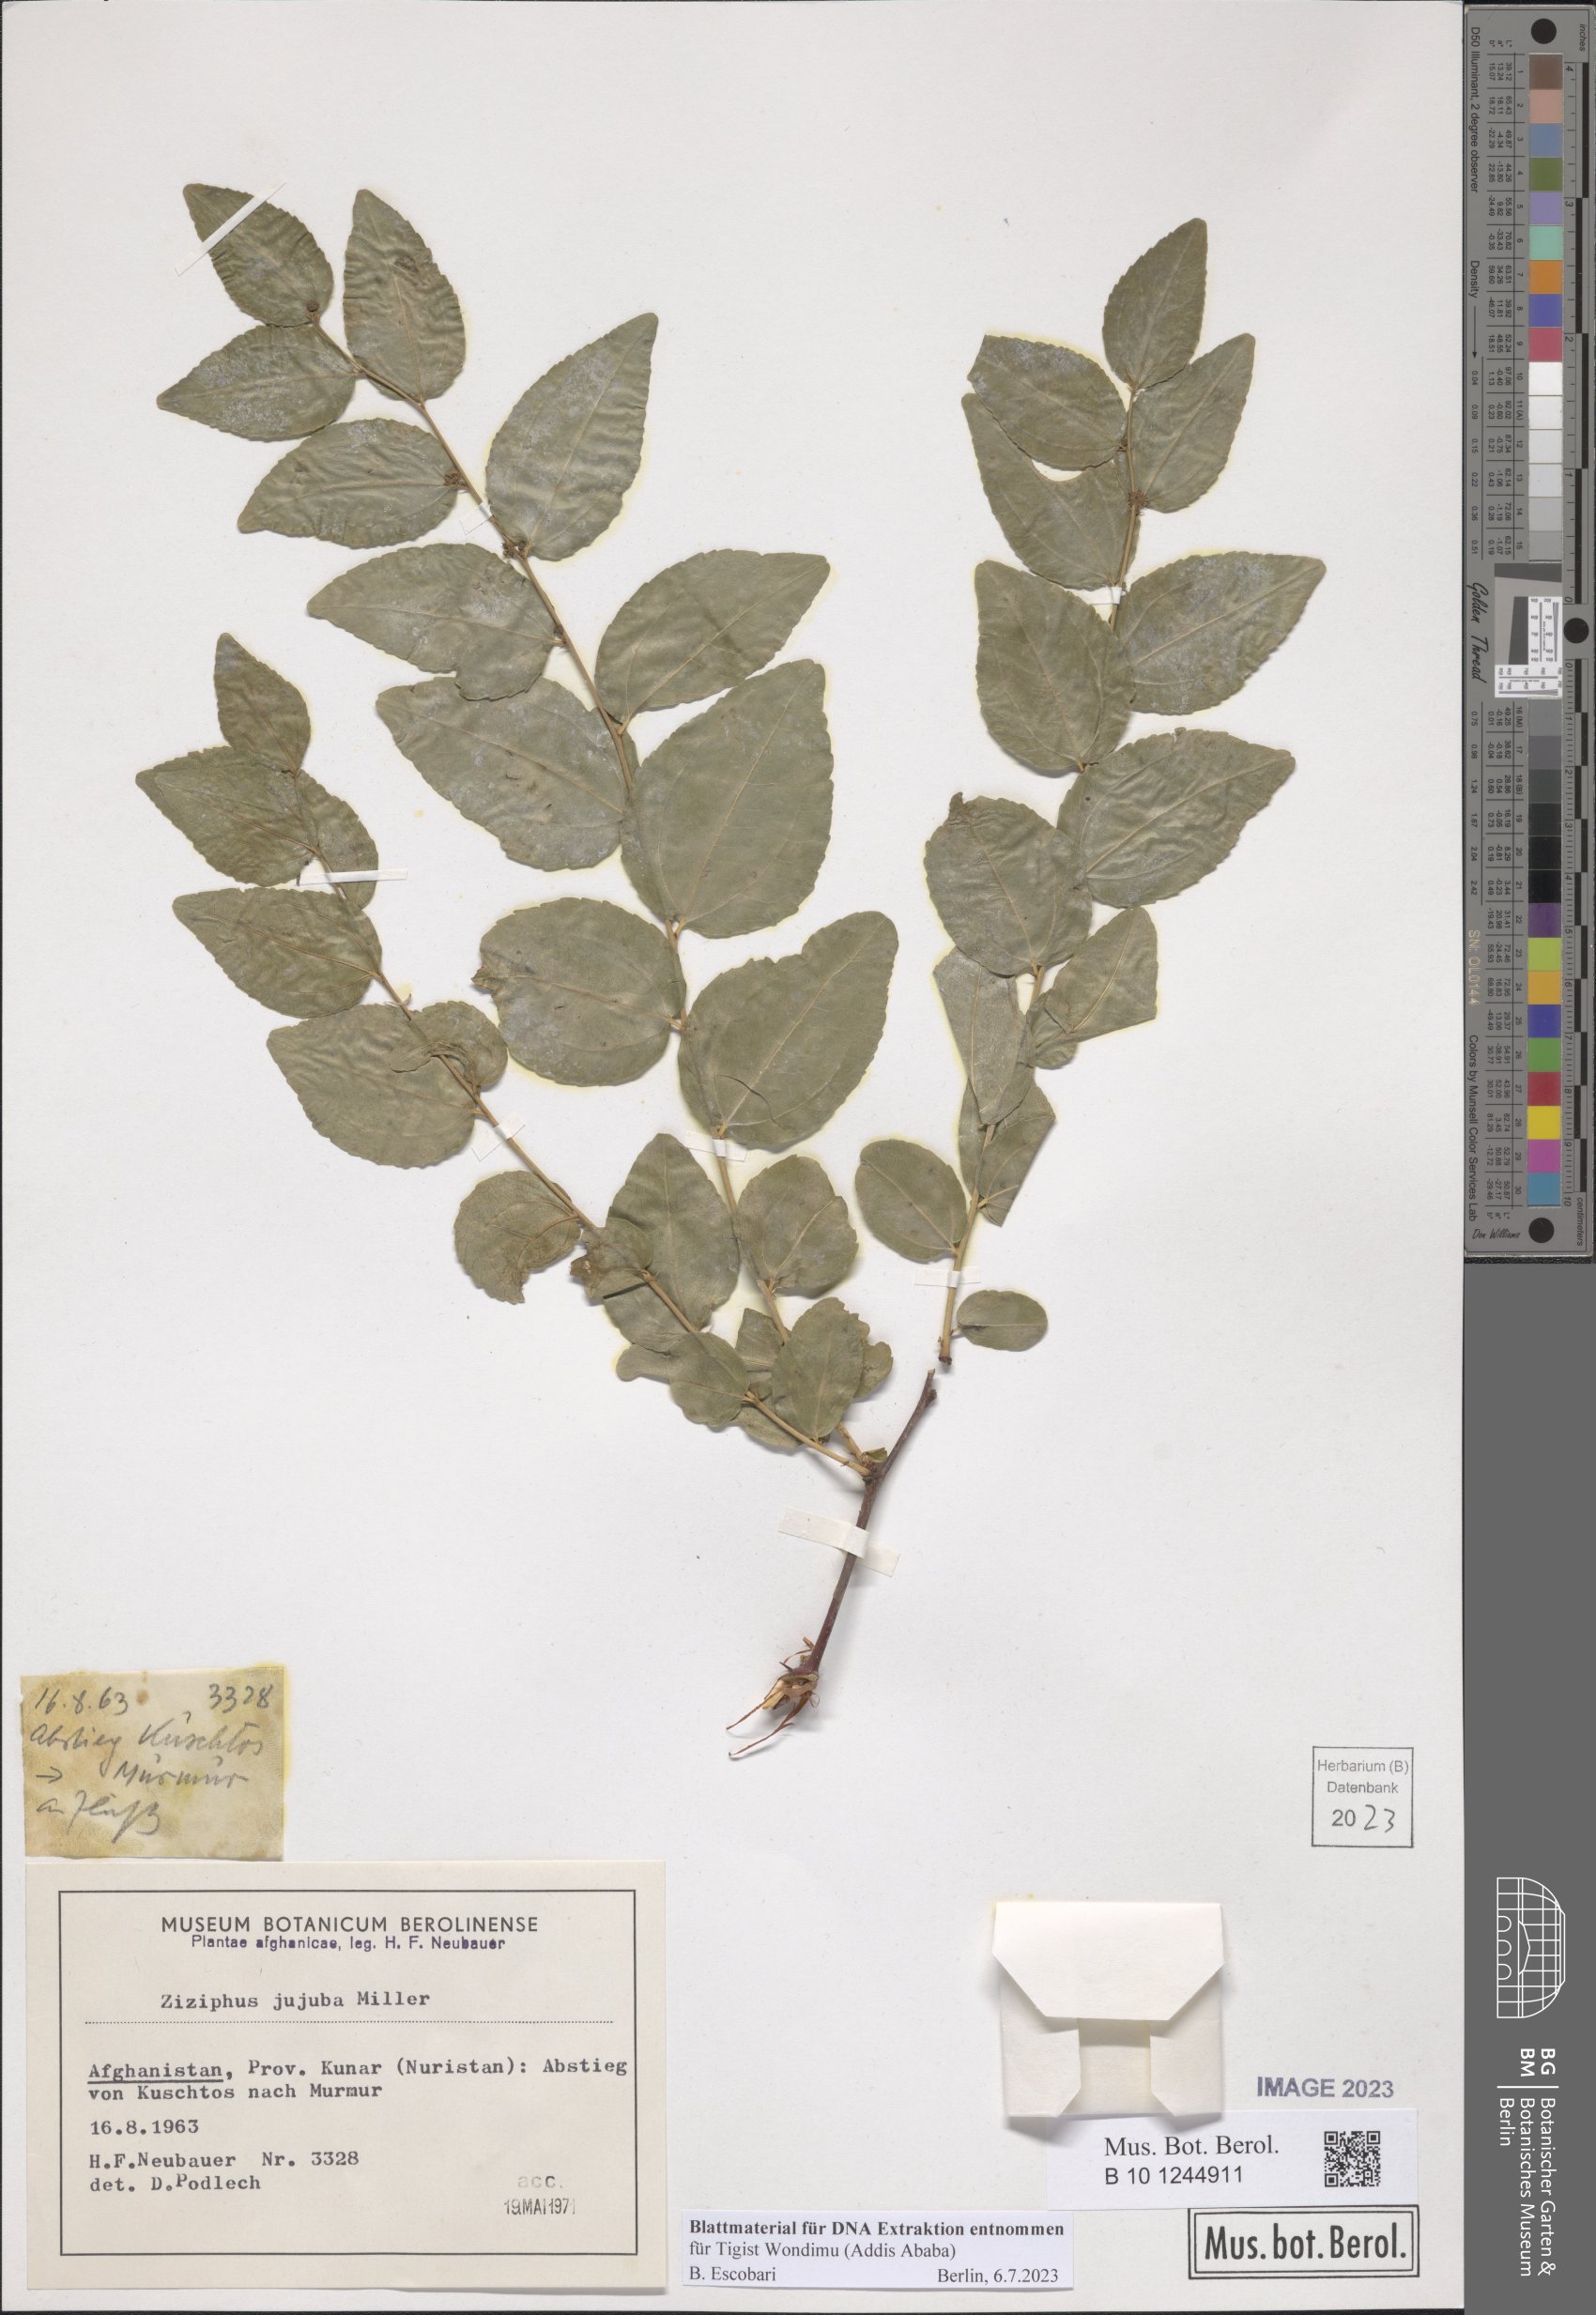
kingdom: Plantae
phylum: Tracheophyta
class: Magnoliopsida
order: Rosales
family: Rhamnaceae
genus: Ziziphus
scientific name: Ziziphus jujuba
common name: Jujube red date
